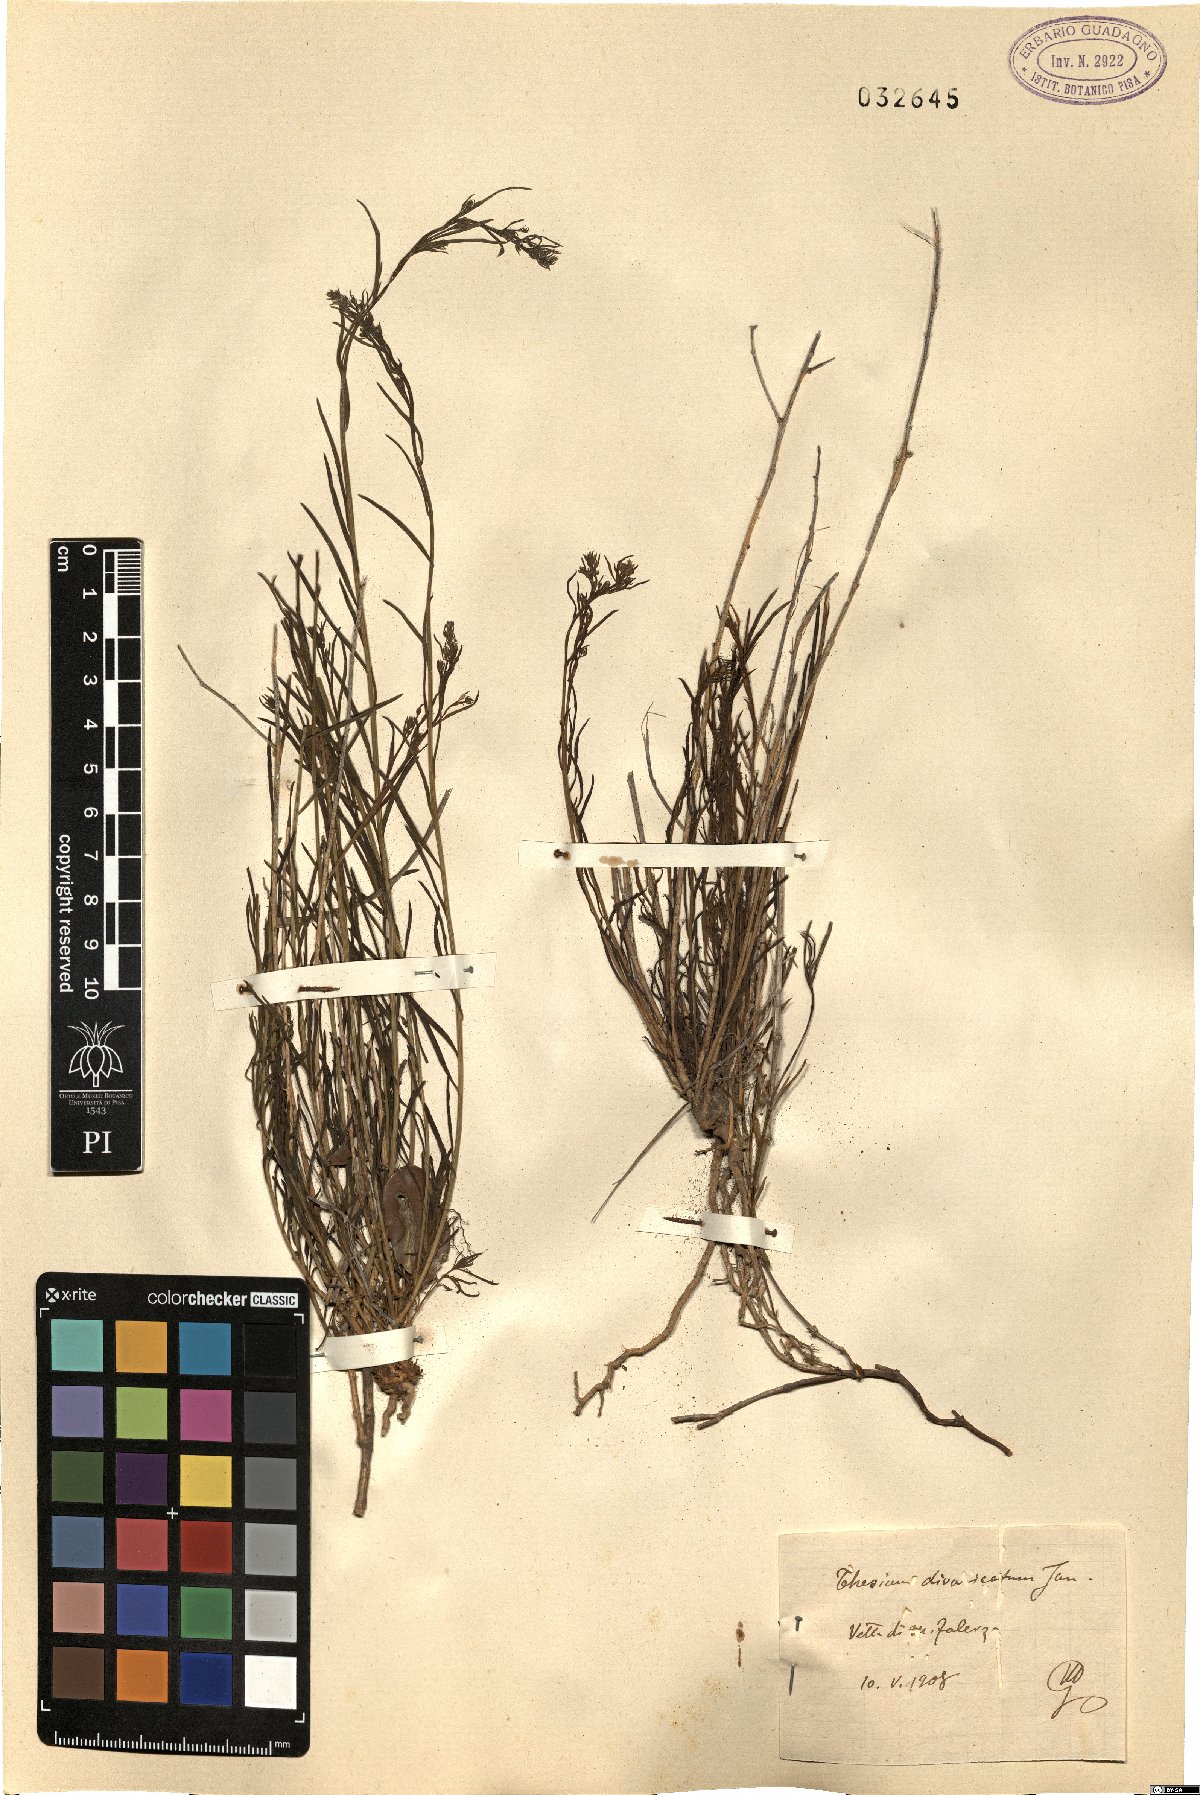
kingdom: Plantae
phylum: Tracheophyta
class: Magnoliopsida
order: Santalales
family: Thesiaceae
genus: Thesium
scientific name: Thesium divaricatum
